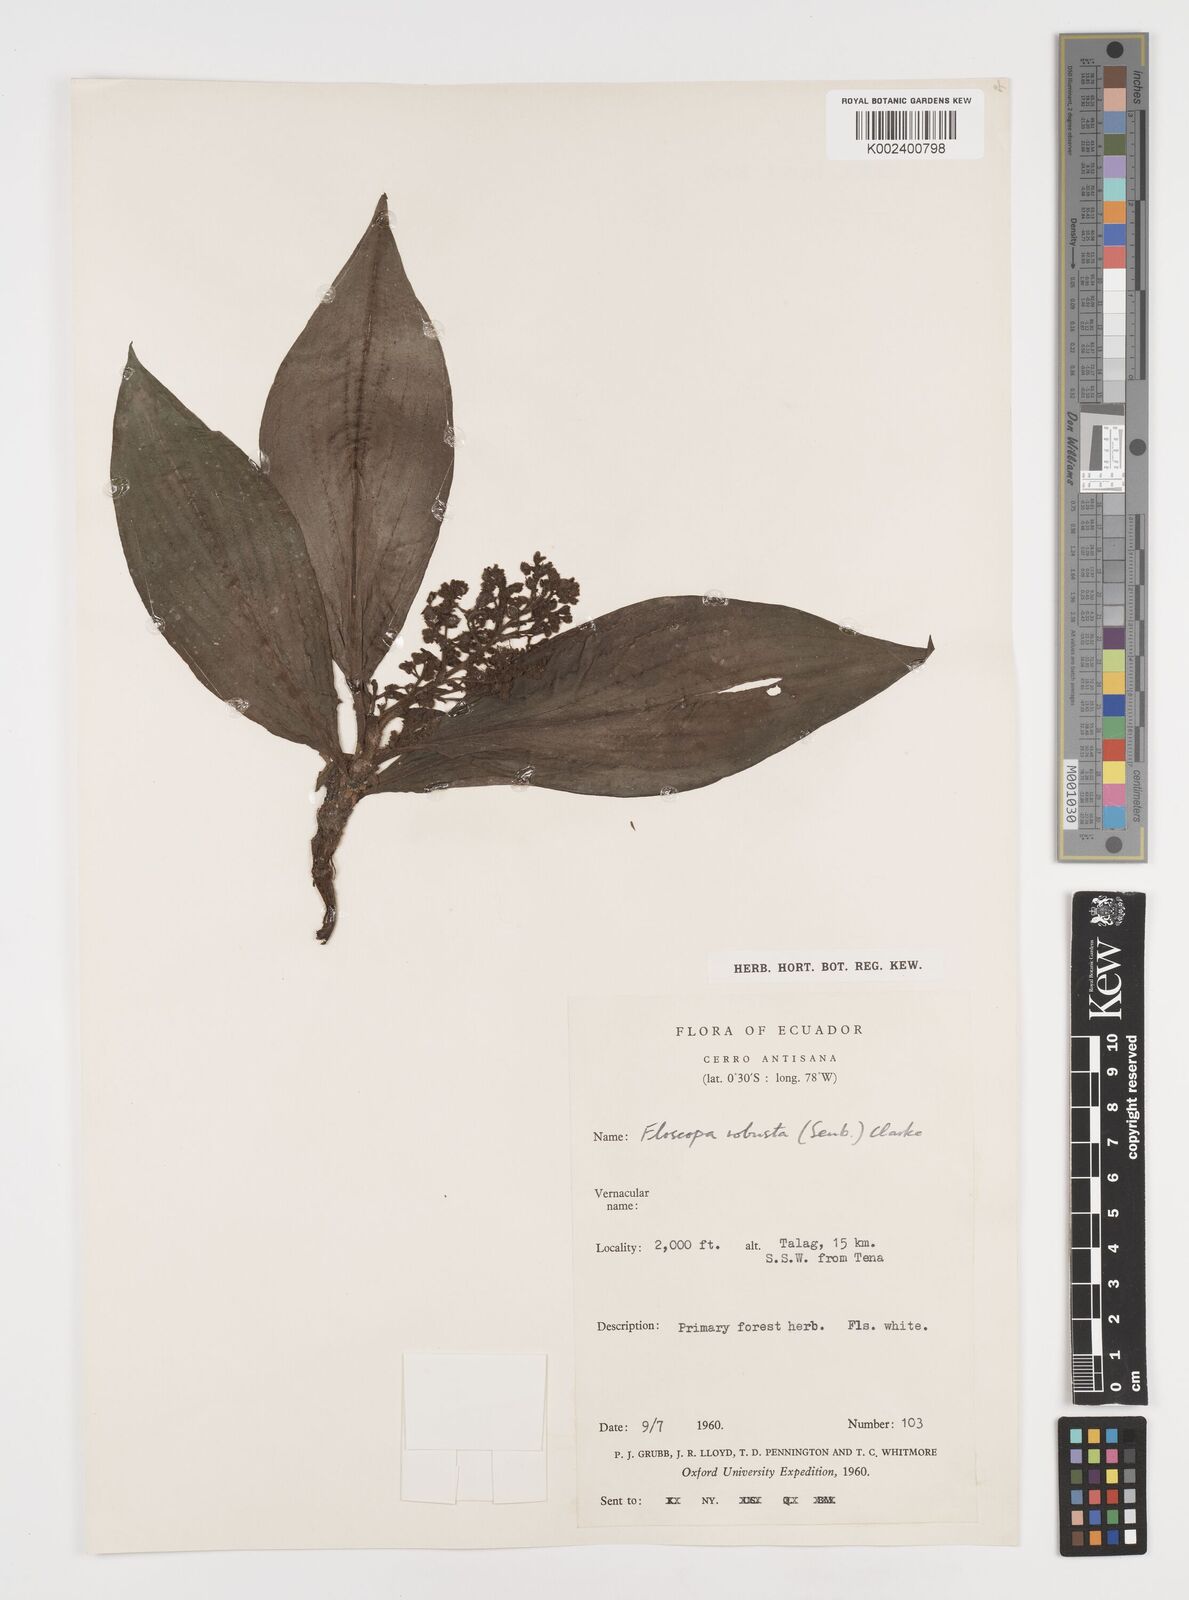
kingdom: Plantae
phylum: Tracheophyta
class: Liliopsida
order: Commelinales
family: Commelinaceae
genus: Floscopa
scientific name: Floscopa robusta
